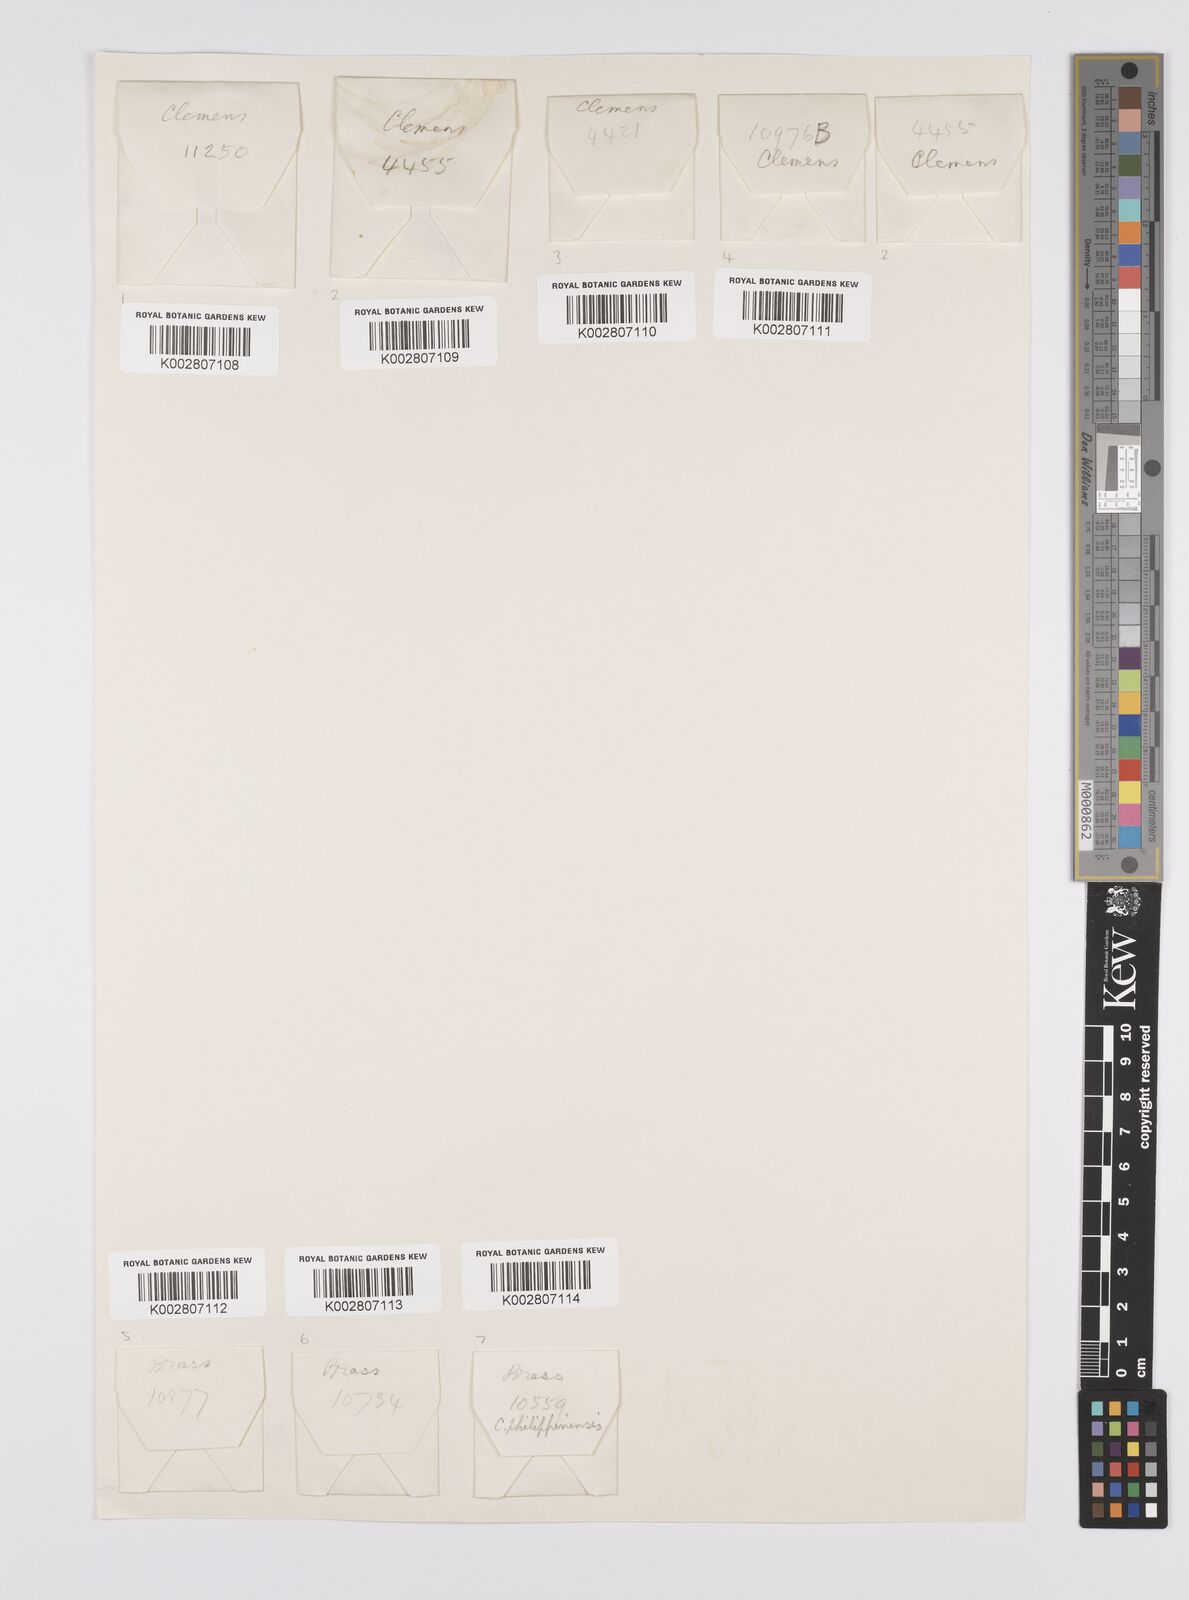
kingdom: Plantae
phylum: Tracheophyta
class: Liliopsida
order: Poales
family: Cyperaceae
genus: Carex
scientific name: Carex graeffeana
